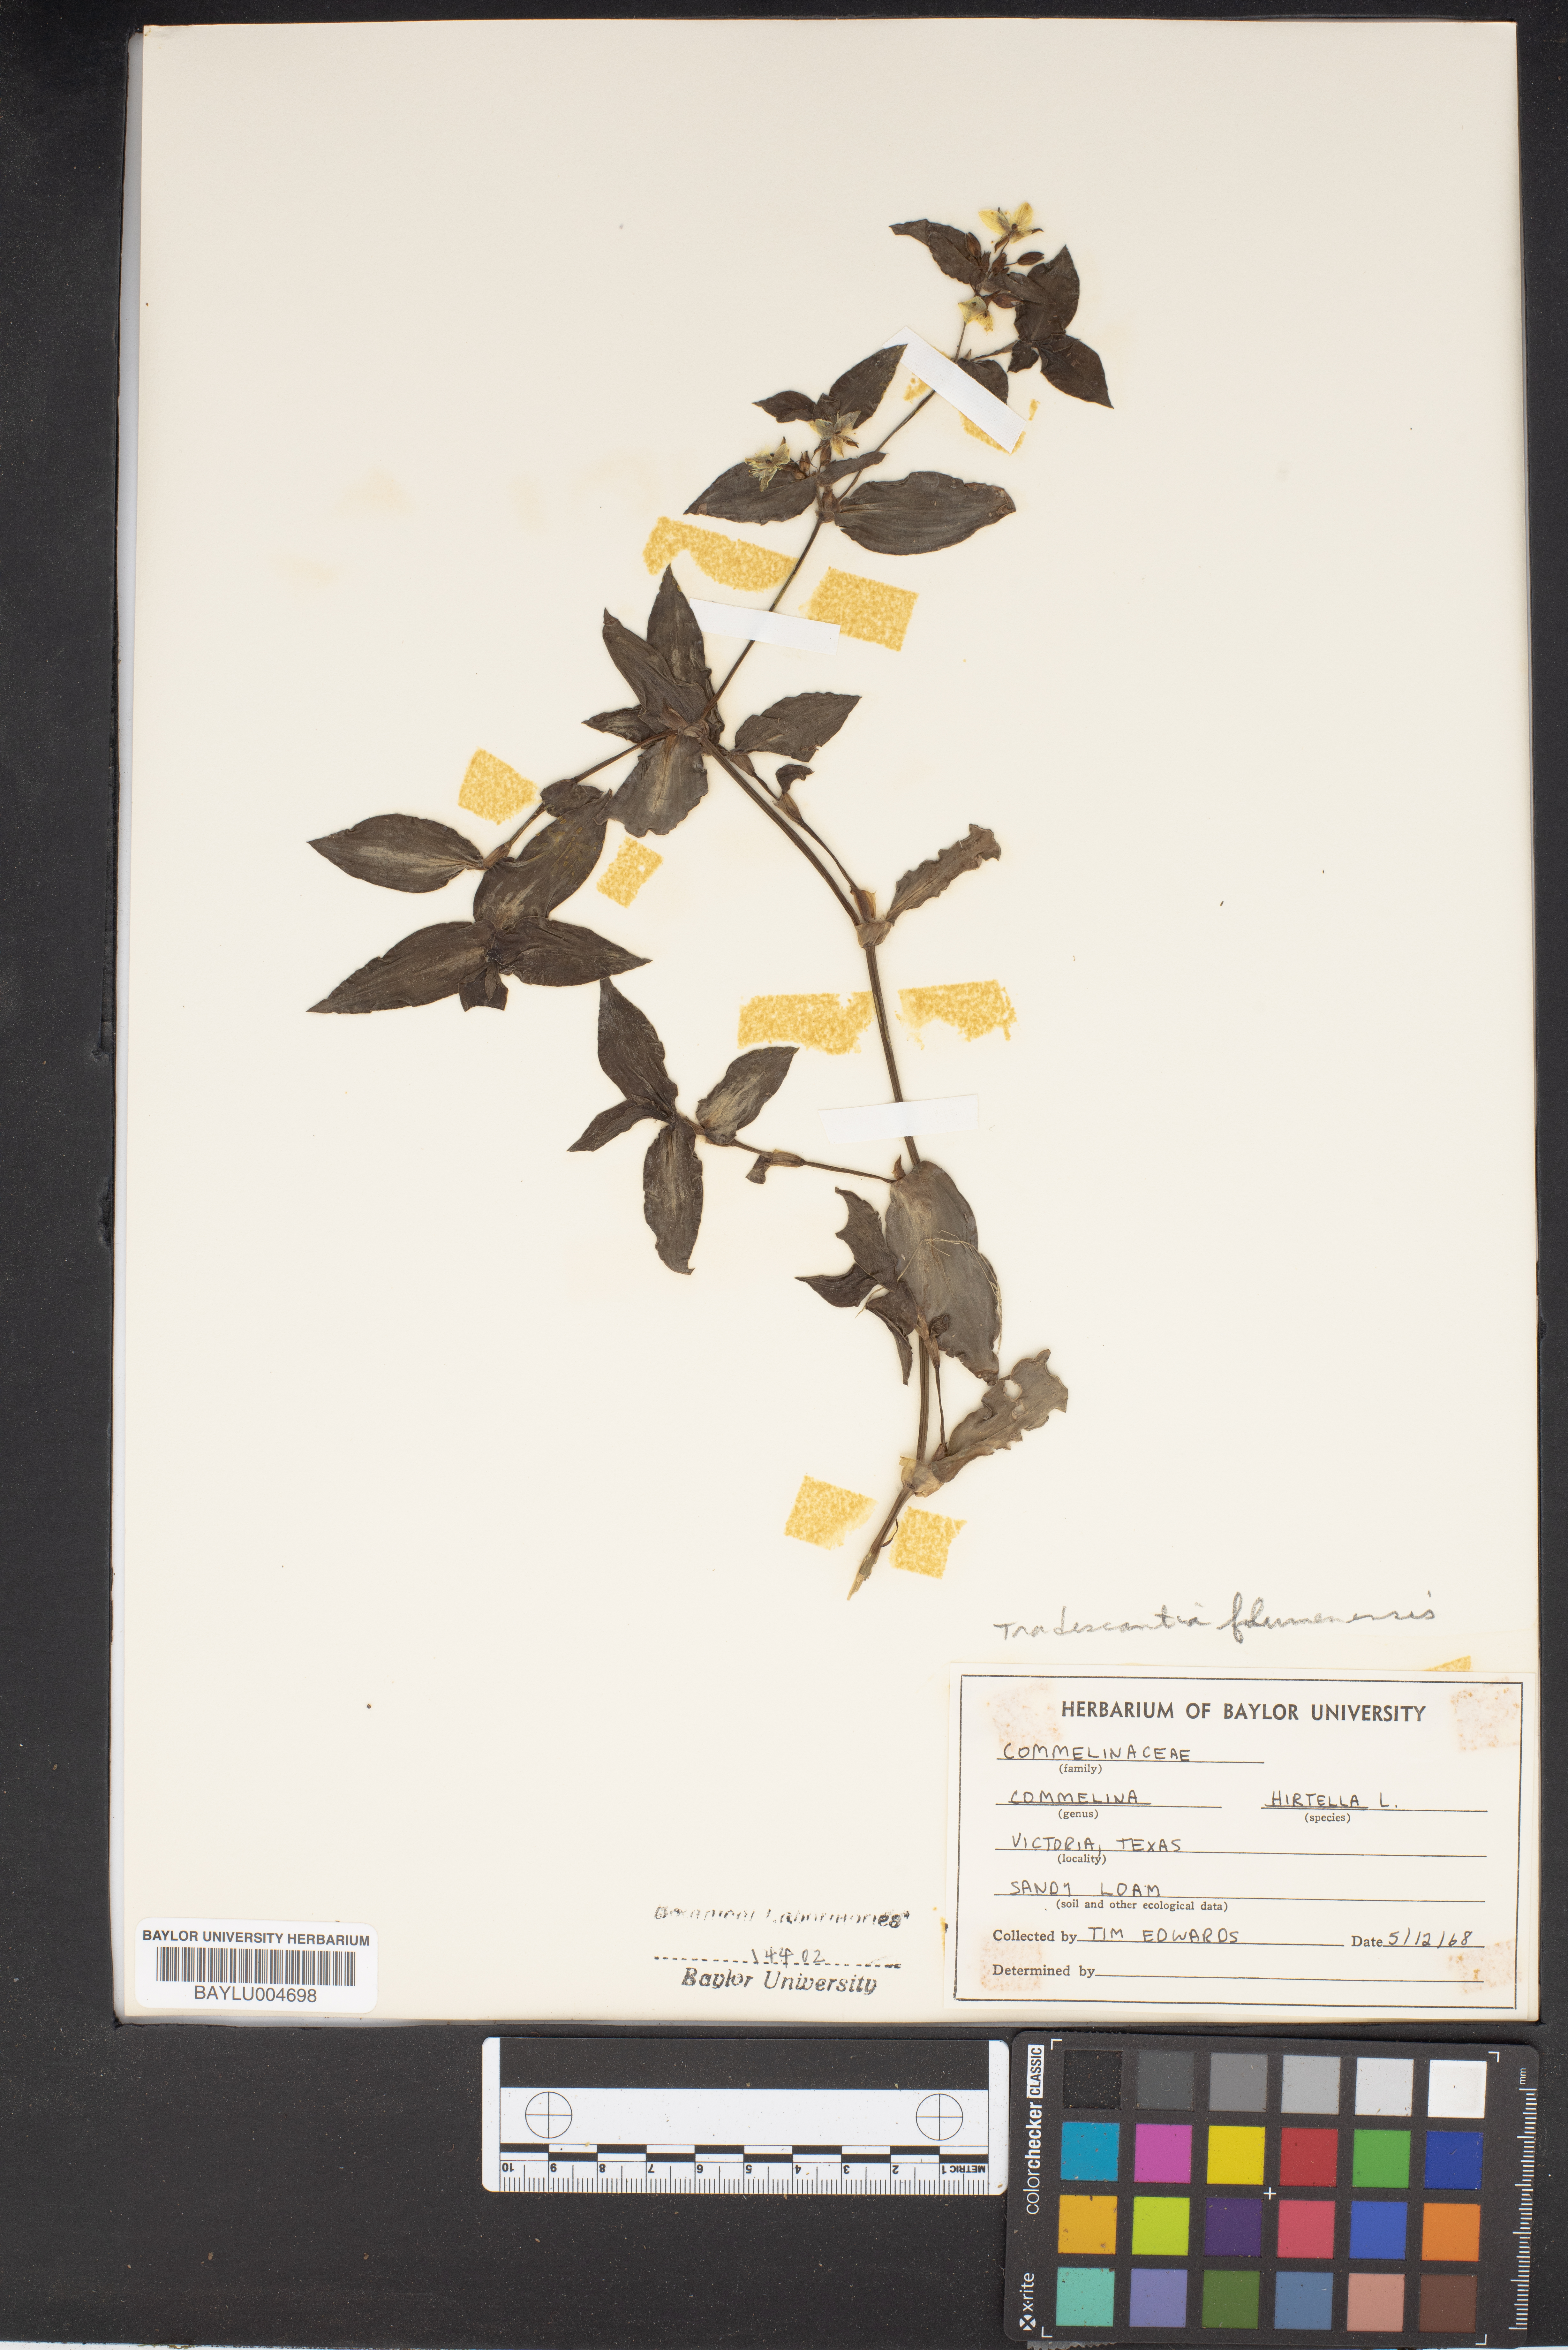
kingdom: Plantae
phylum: Tracheophyta
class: Liliopsida
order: Commelinales
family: Commelinaceae
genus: Commelina
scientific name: Commelina virginica
